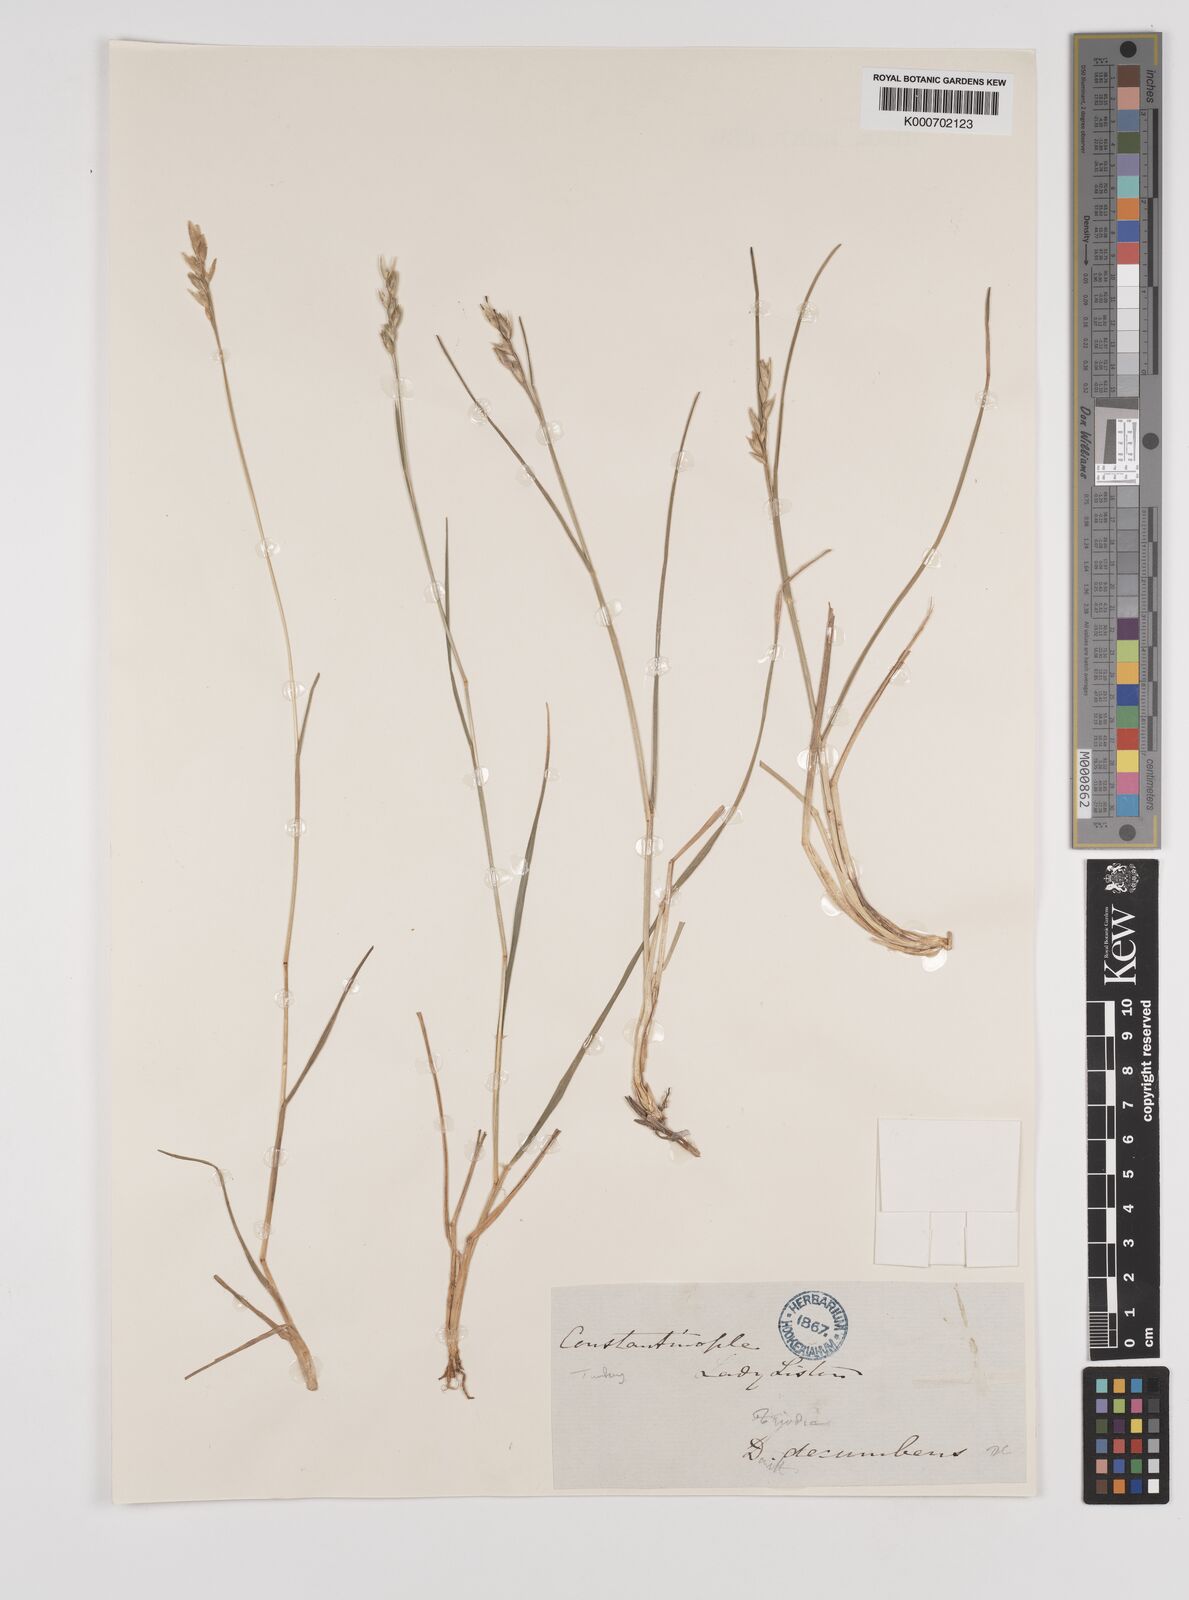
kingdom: Plantae
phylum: Tracheophyta
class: Liliopsida
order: Poales
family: Poaceae
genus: Danthonia
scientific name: Danthonia alpina
